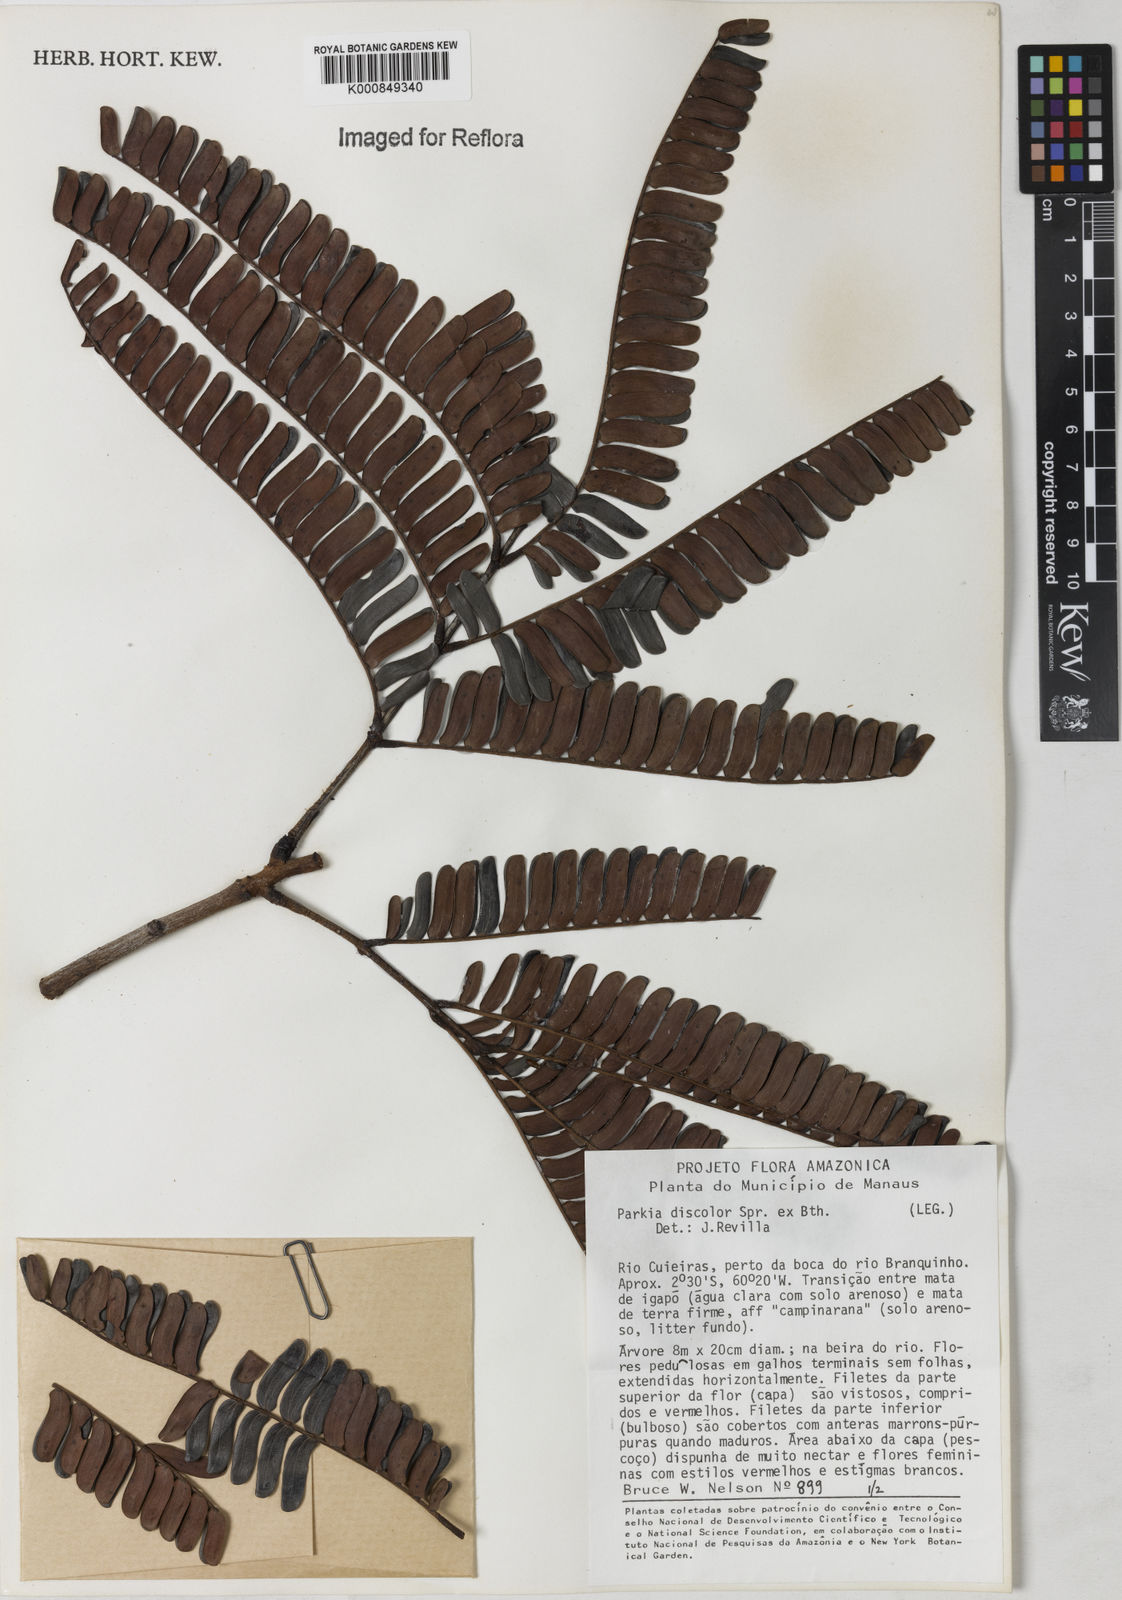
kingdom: Plantae
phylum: Tracheophyta
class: Magnoliopsida
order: Fabales
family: Fabaceae
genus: Parkia
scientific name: Parkia discolor
